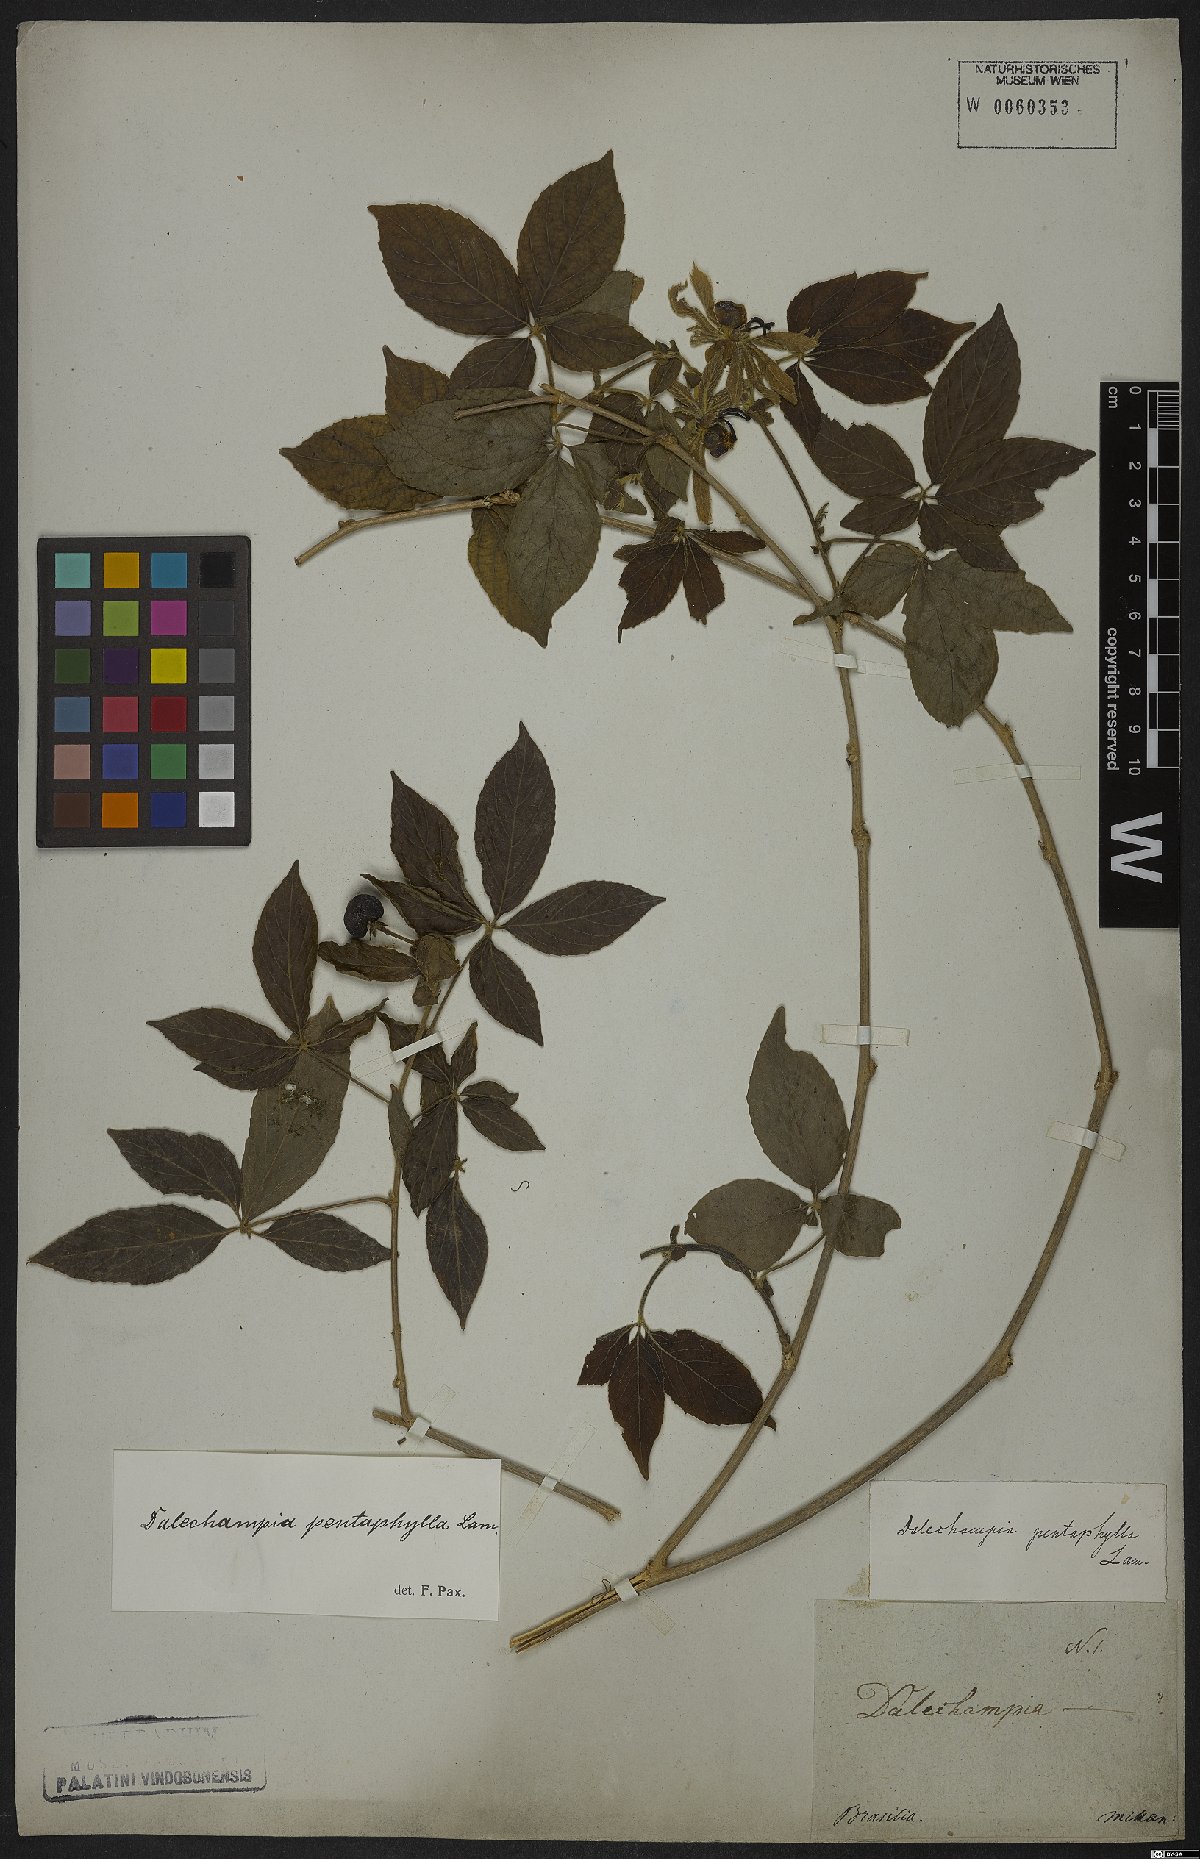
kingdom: Plantae
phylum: Tracheophyta
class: Magnoliopsida
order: Malpighiales
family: Euphorbiaceae
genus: Dalechampia
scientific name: Dalechampia pentaphylla
